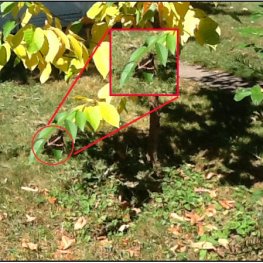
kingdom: Animalia
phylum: Arthropoda
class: Insecta
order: Lepidoptera
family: Papilionidae
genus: Papilio
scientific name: Papilio cresphontes
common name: Eastern Giant Swallowtail
